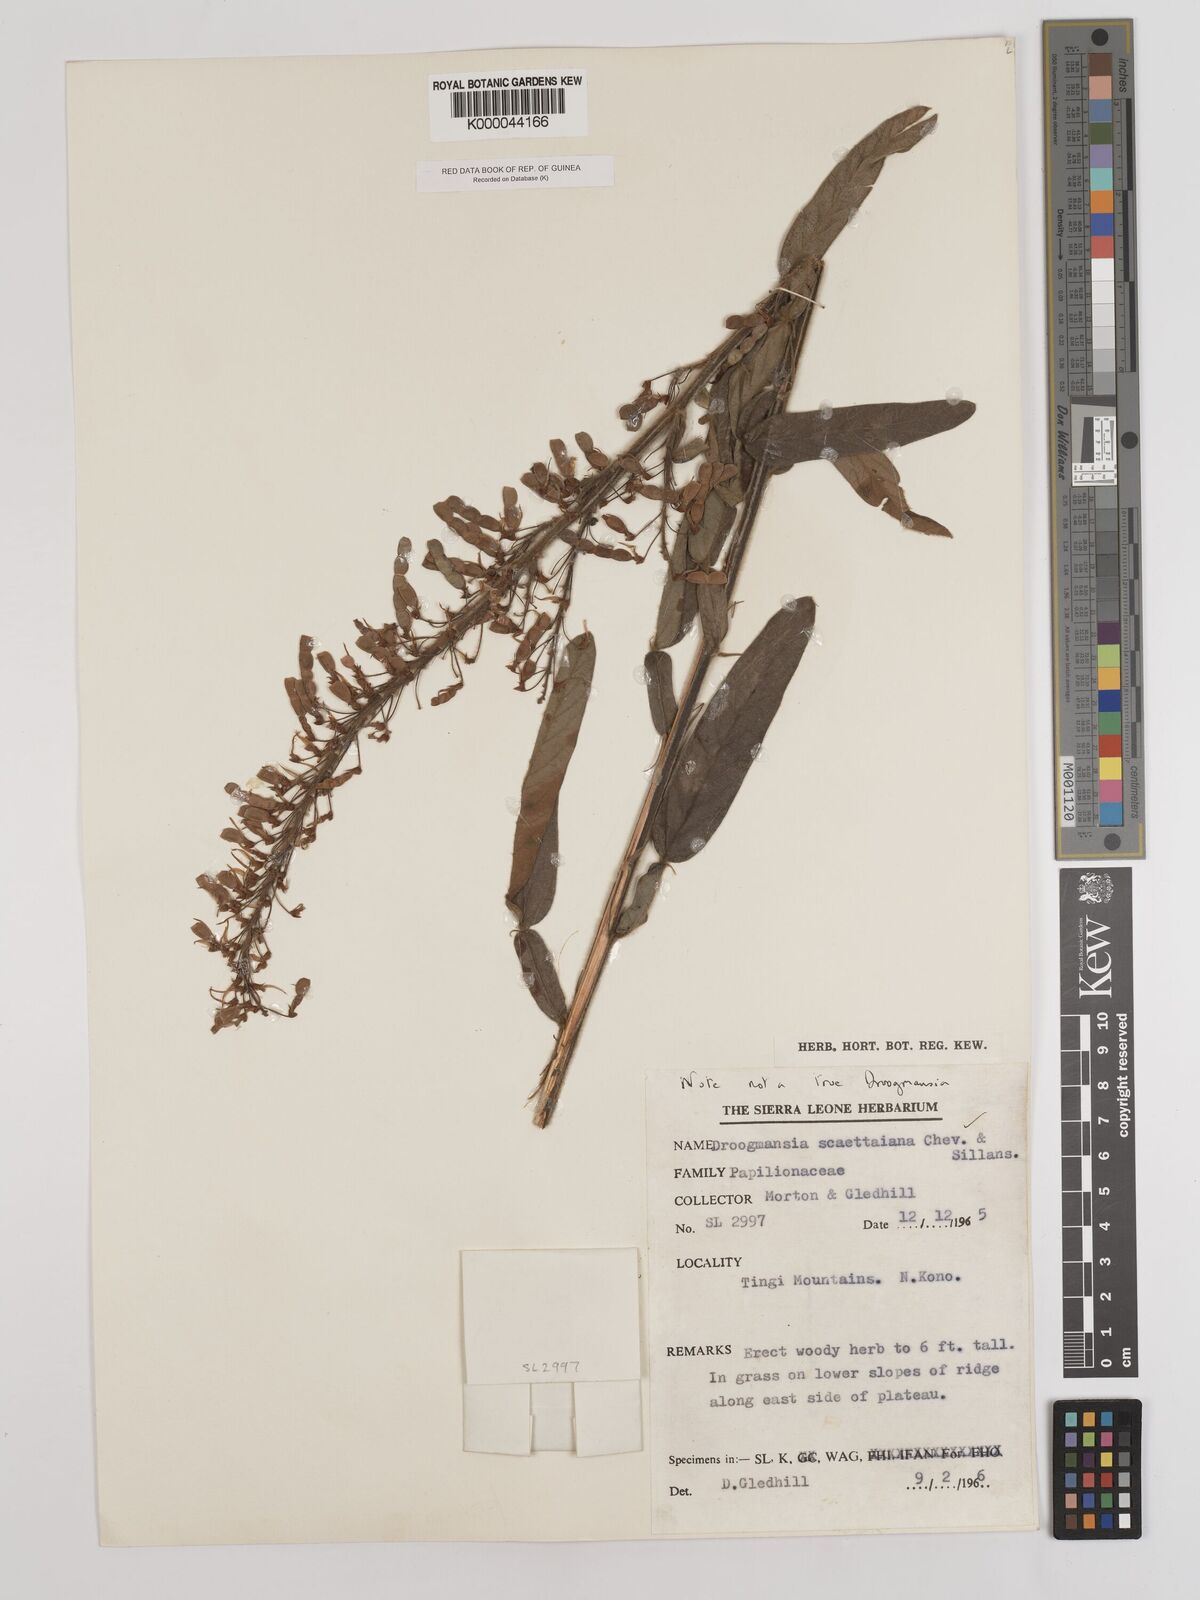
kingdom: Plantae
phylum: Tracheophyta
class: Magnoliopsida
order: Fabales
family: Fabaceae
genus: Droogmansia
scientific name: Droogmansia scaettaiana
